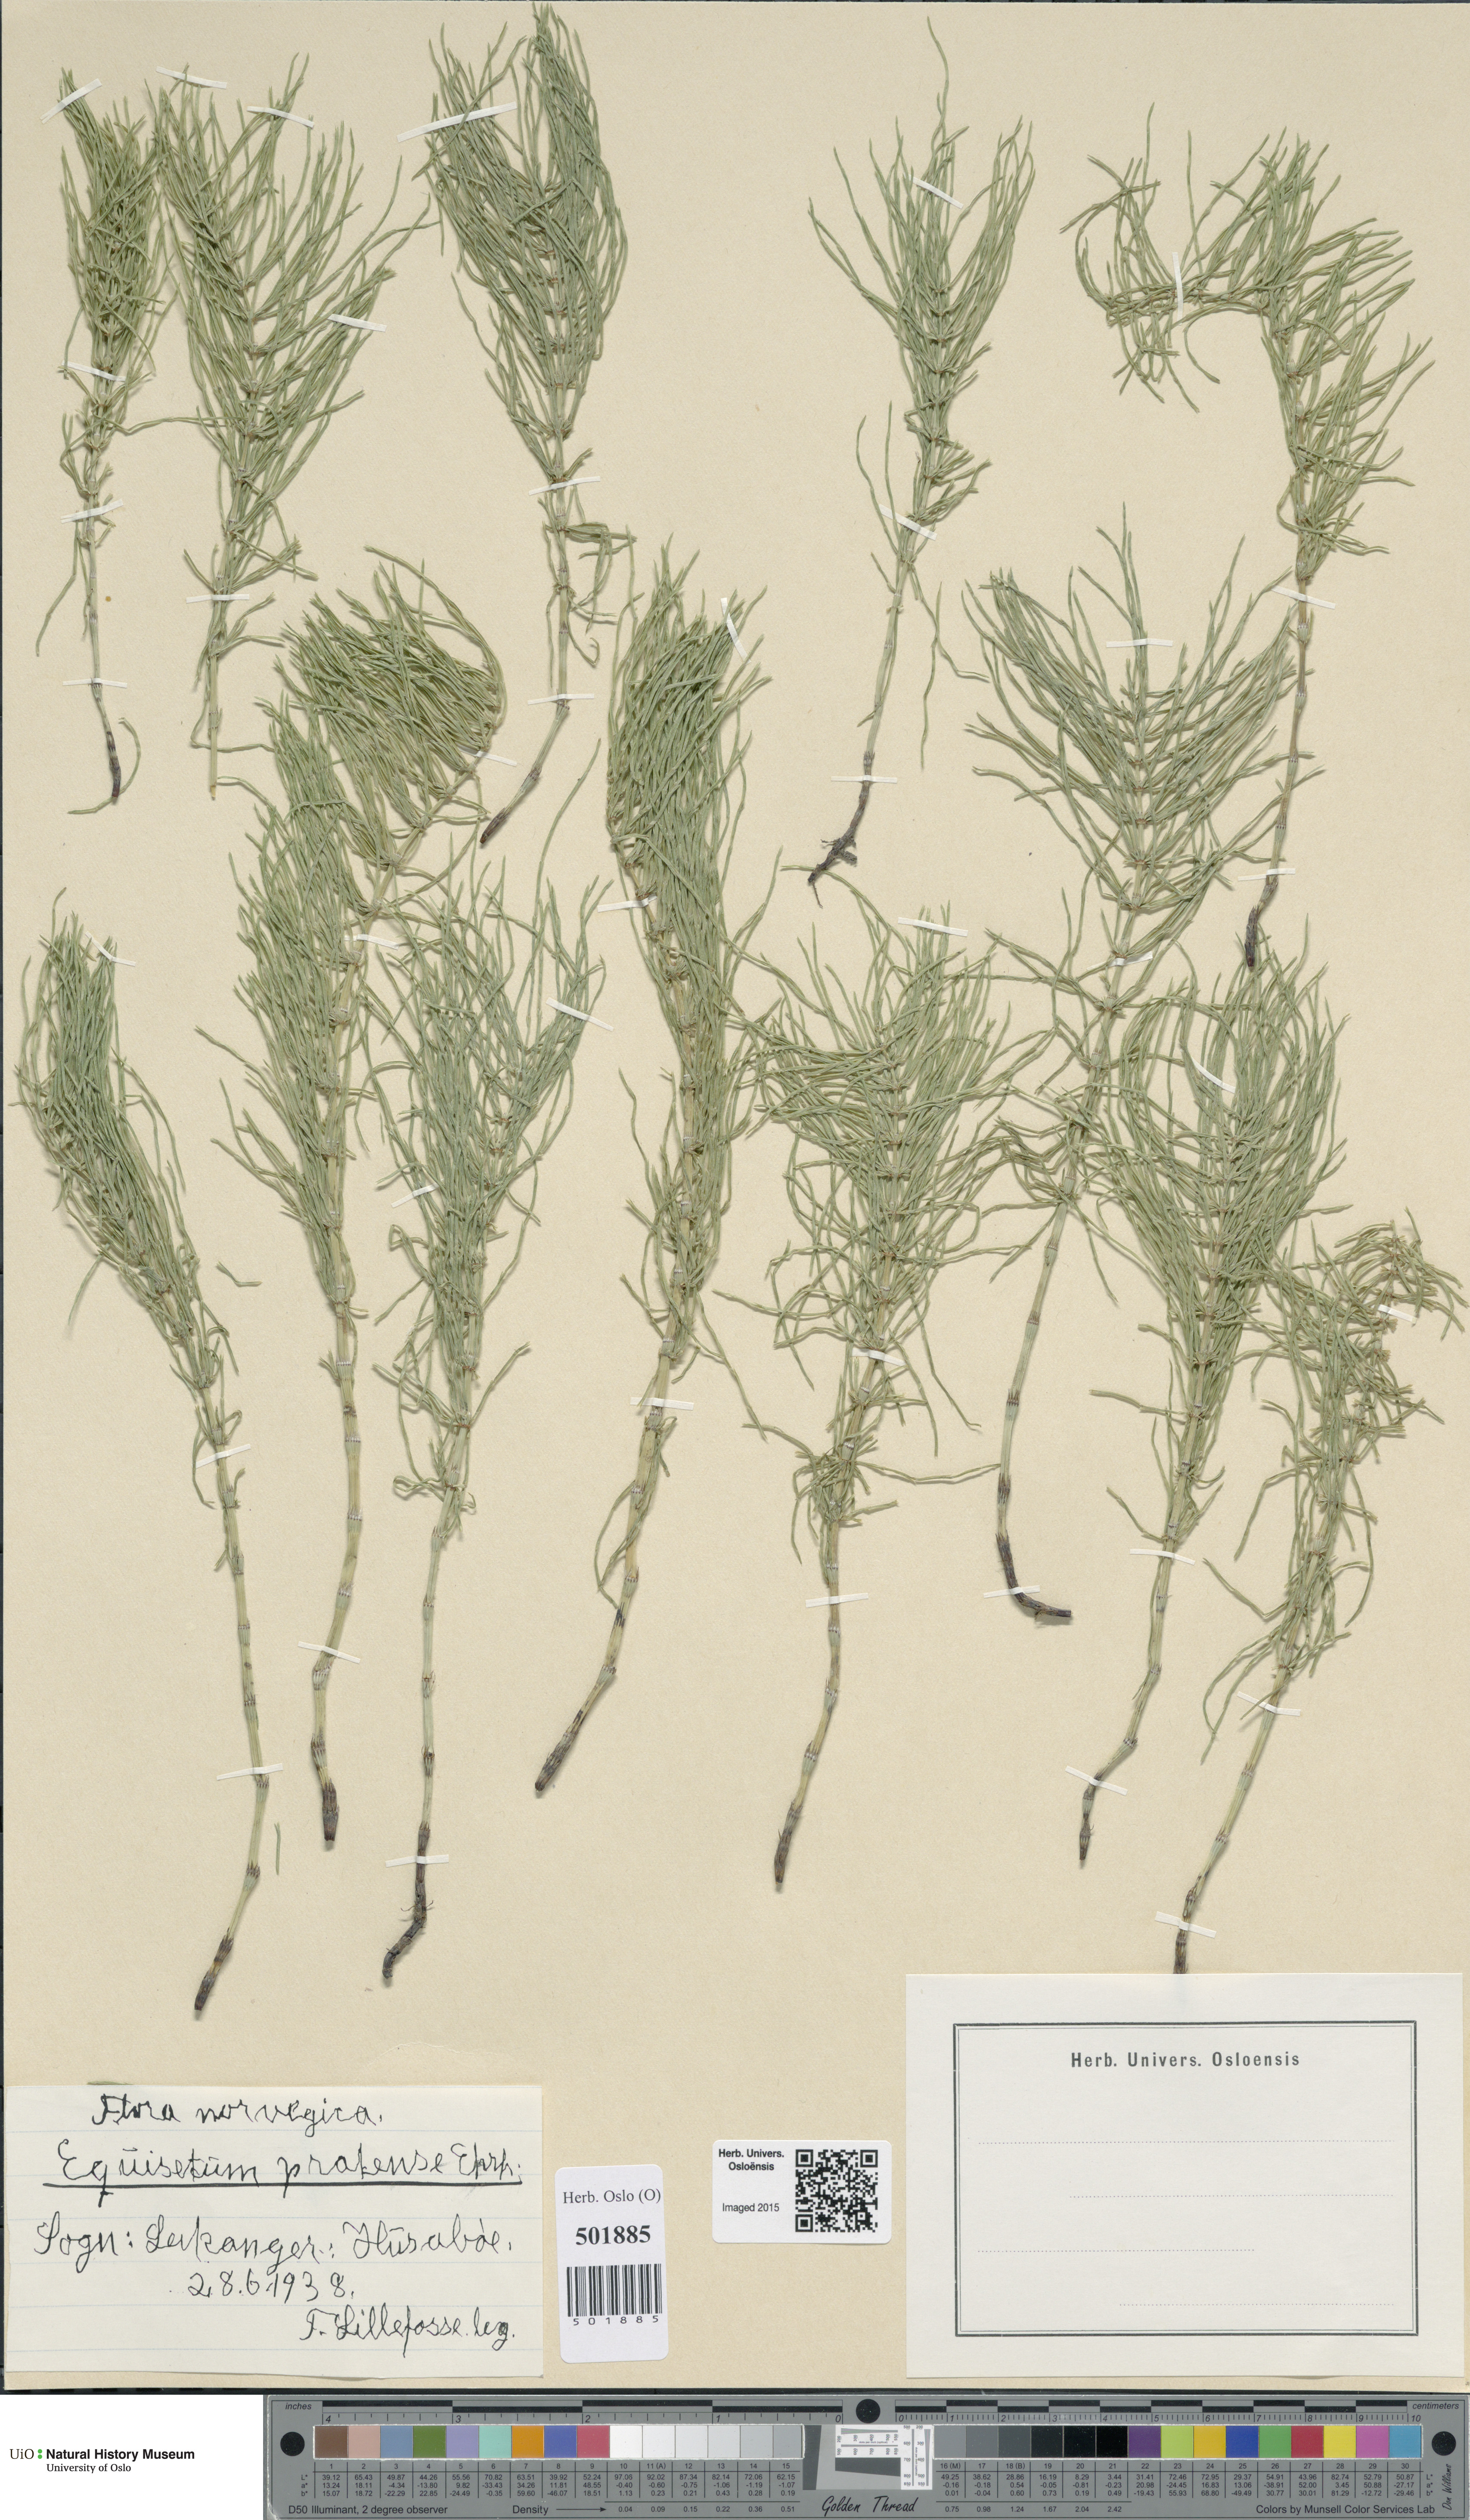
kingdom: Plantae
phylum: Tracheophyta
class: Polypodiopsida
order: Equisetales
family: Equisetaceae
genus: Equisetum
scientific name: Equisetum pratense
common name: Meadow horsetail
